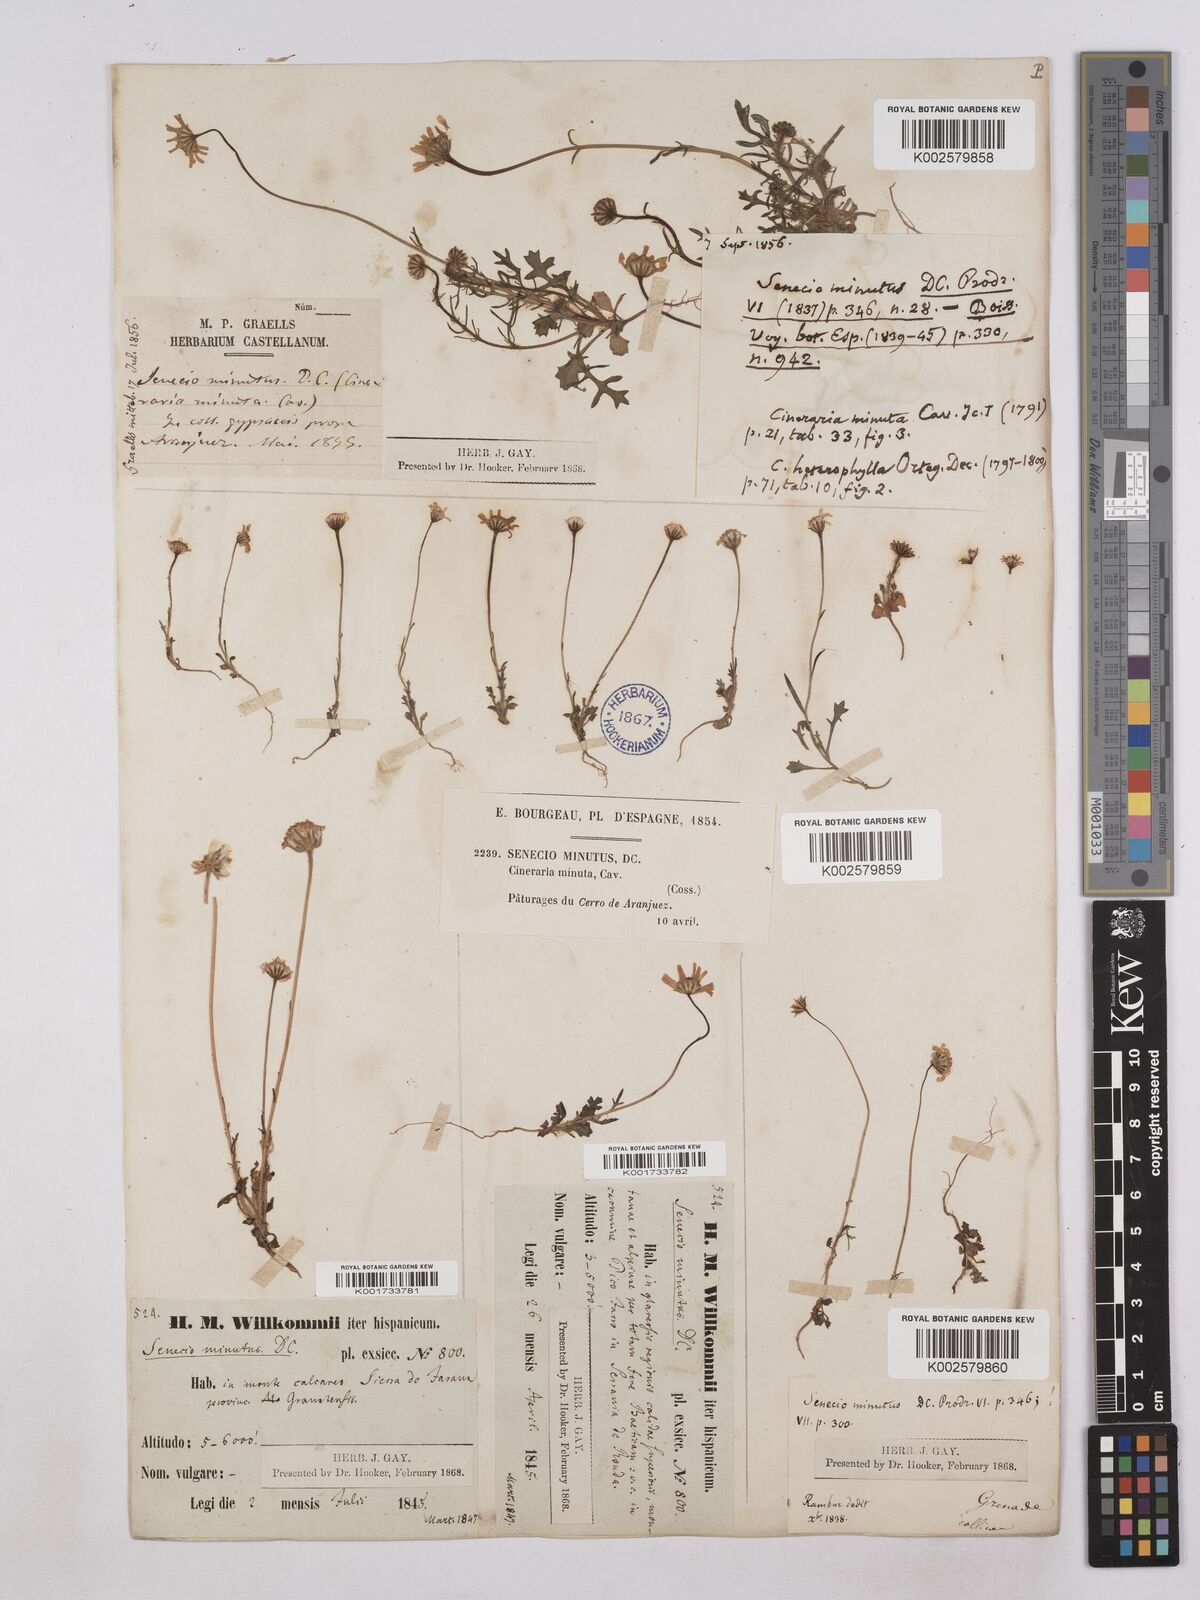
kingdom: Plantae
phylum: Tracheophyta
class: Magnoliopsida
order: Asterales
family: Asteraceae
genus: Jacobaea
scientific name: Jacobaea minuta
